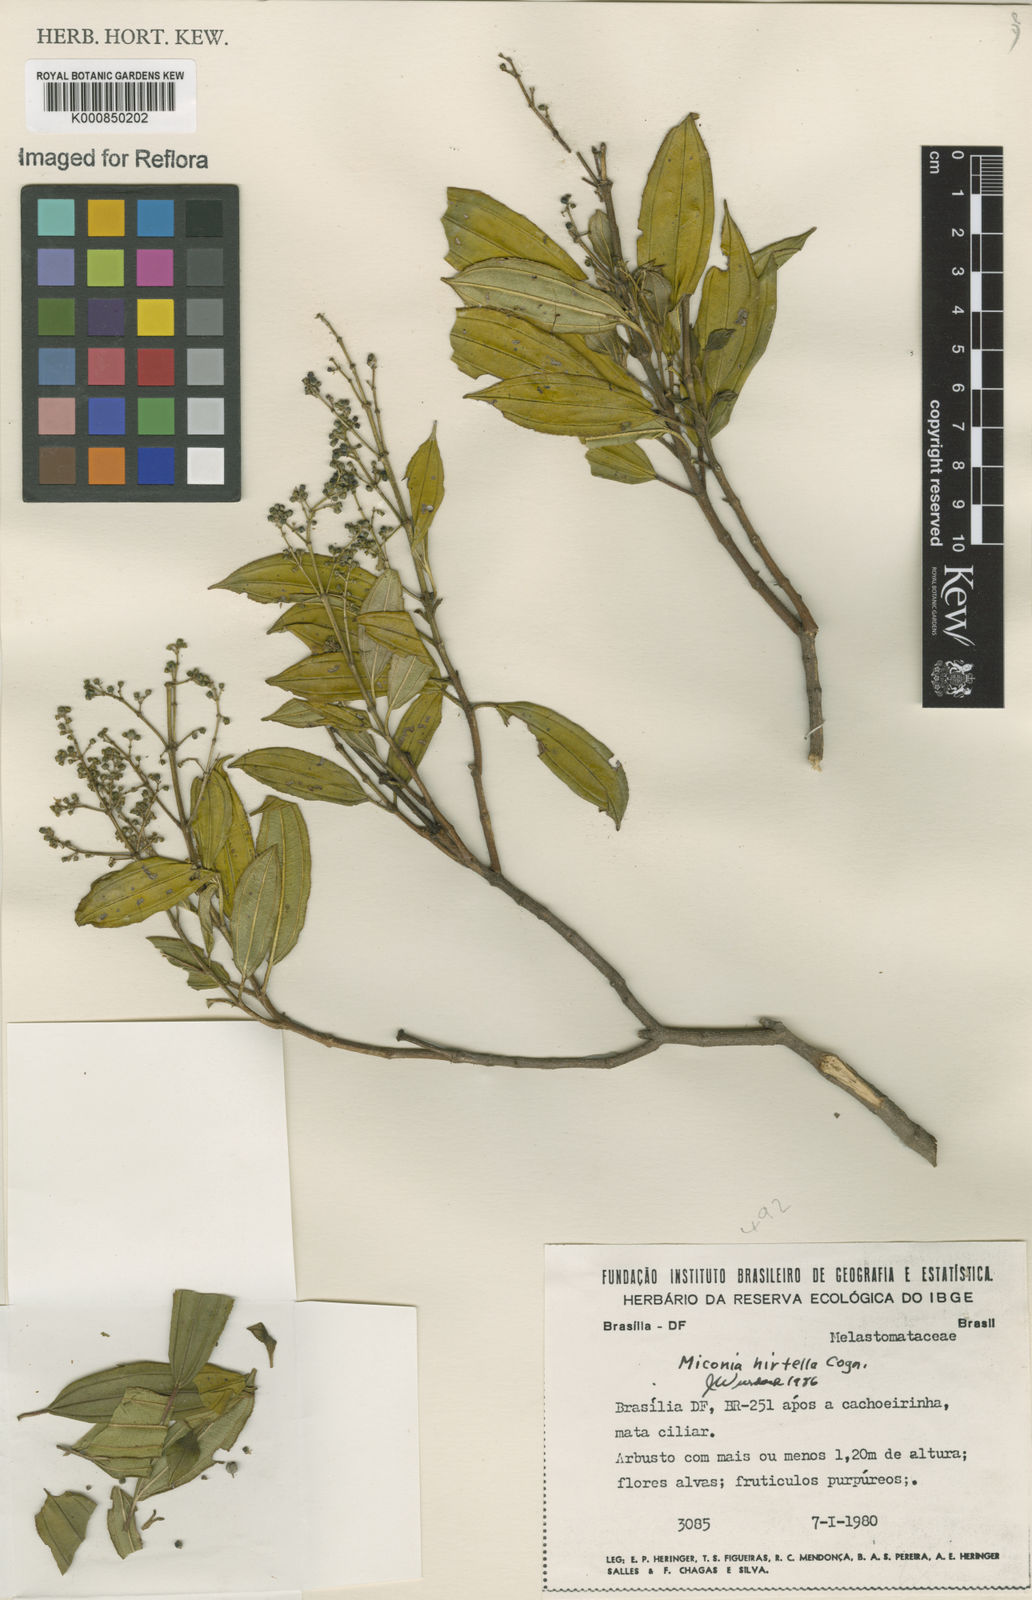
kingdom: Plantae
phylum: Tracheophyta
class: Magnoliopsida
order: Myrtales
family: Melastomataceae
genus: Miconia
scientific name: Miconia hirta
